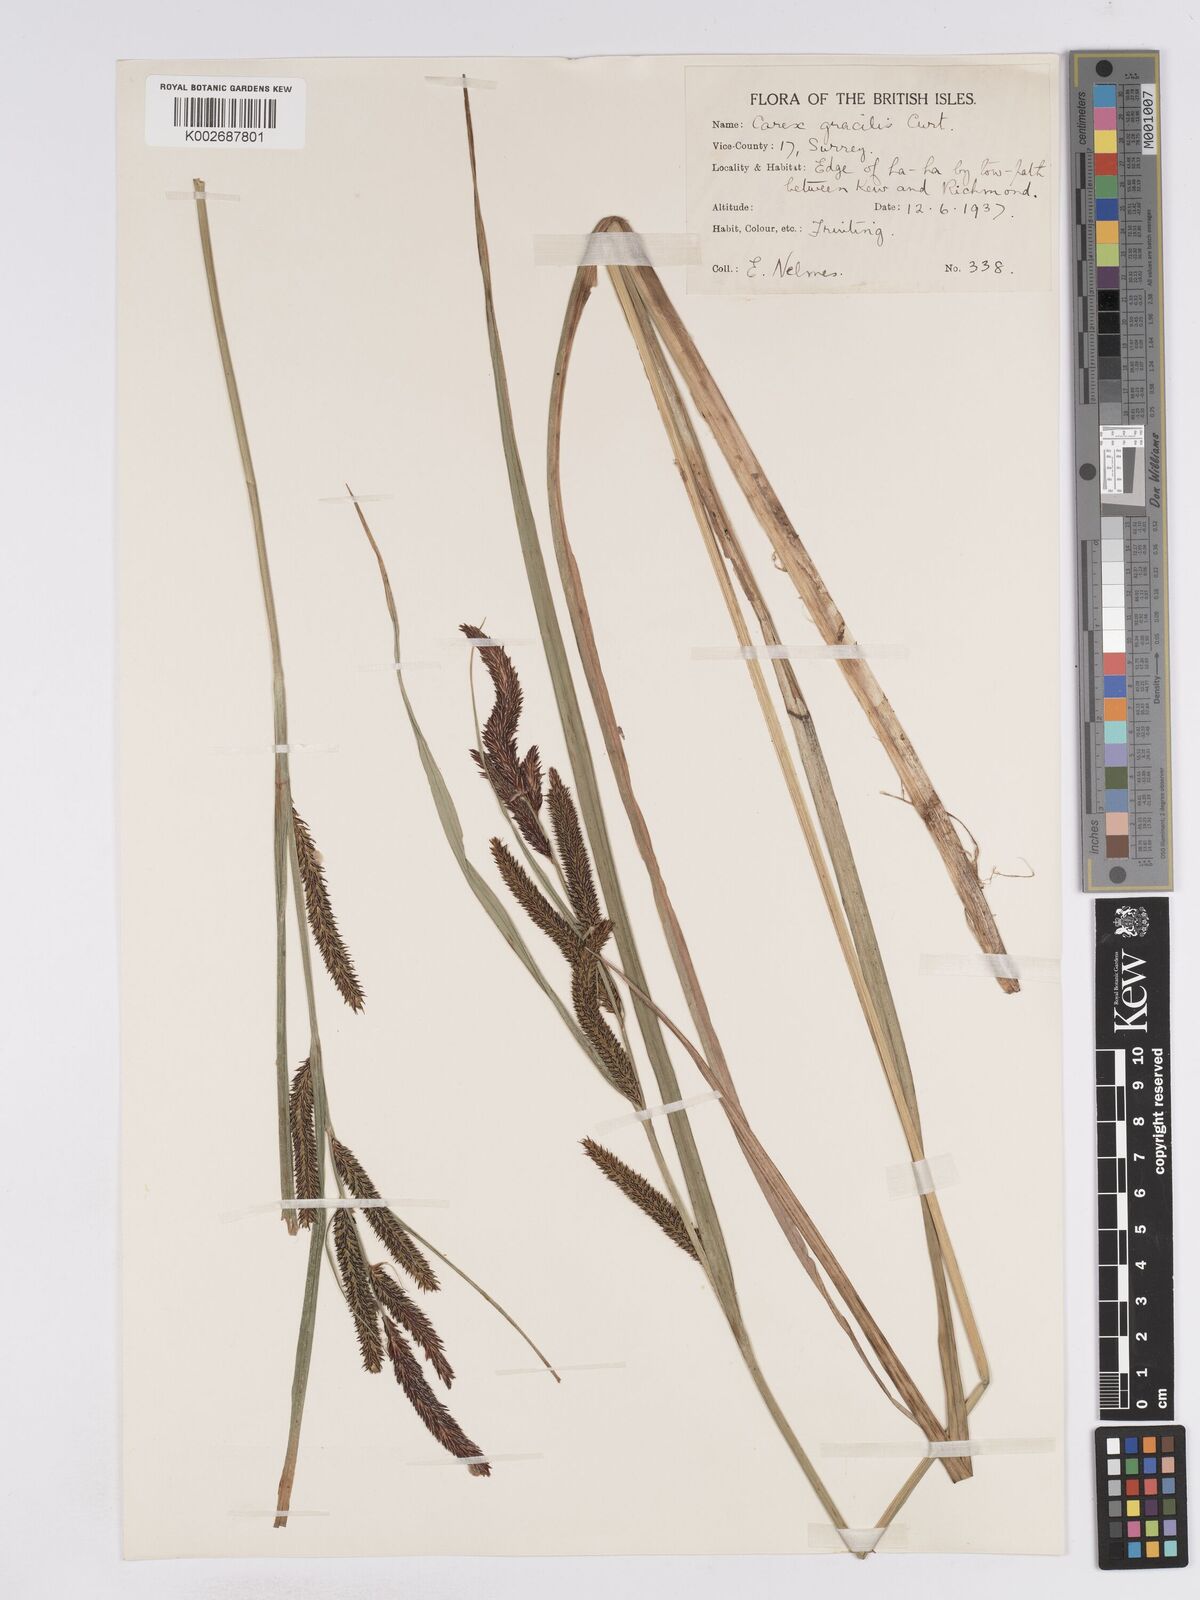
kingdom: Plantae
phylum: Tracheophyta
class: Liliopsida
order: Poales
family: Cyperaceae
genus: Carex
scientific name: Carex acuta
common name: Slender tufted-sedge
